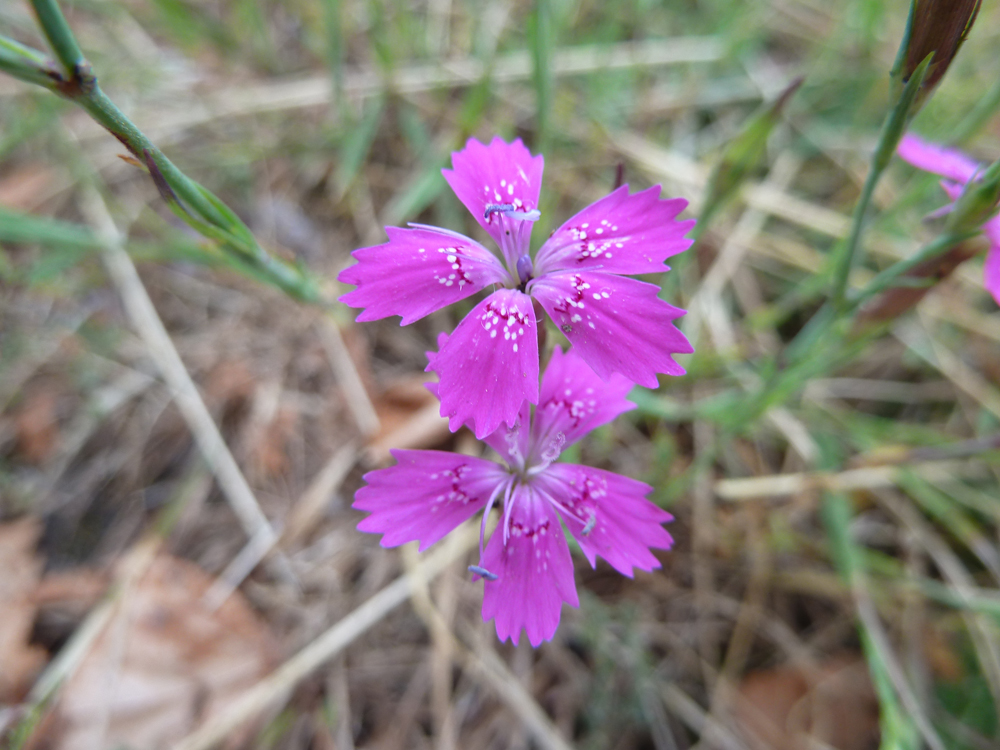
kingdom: Plantae
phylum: Tracheophyta
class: Magnoliopsida
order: Caryophyllales
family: Caryophyllaceae
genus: Dianthus
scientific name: Dianthus deltoides
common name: Maiden pink
